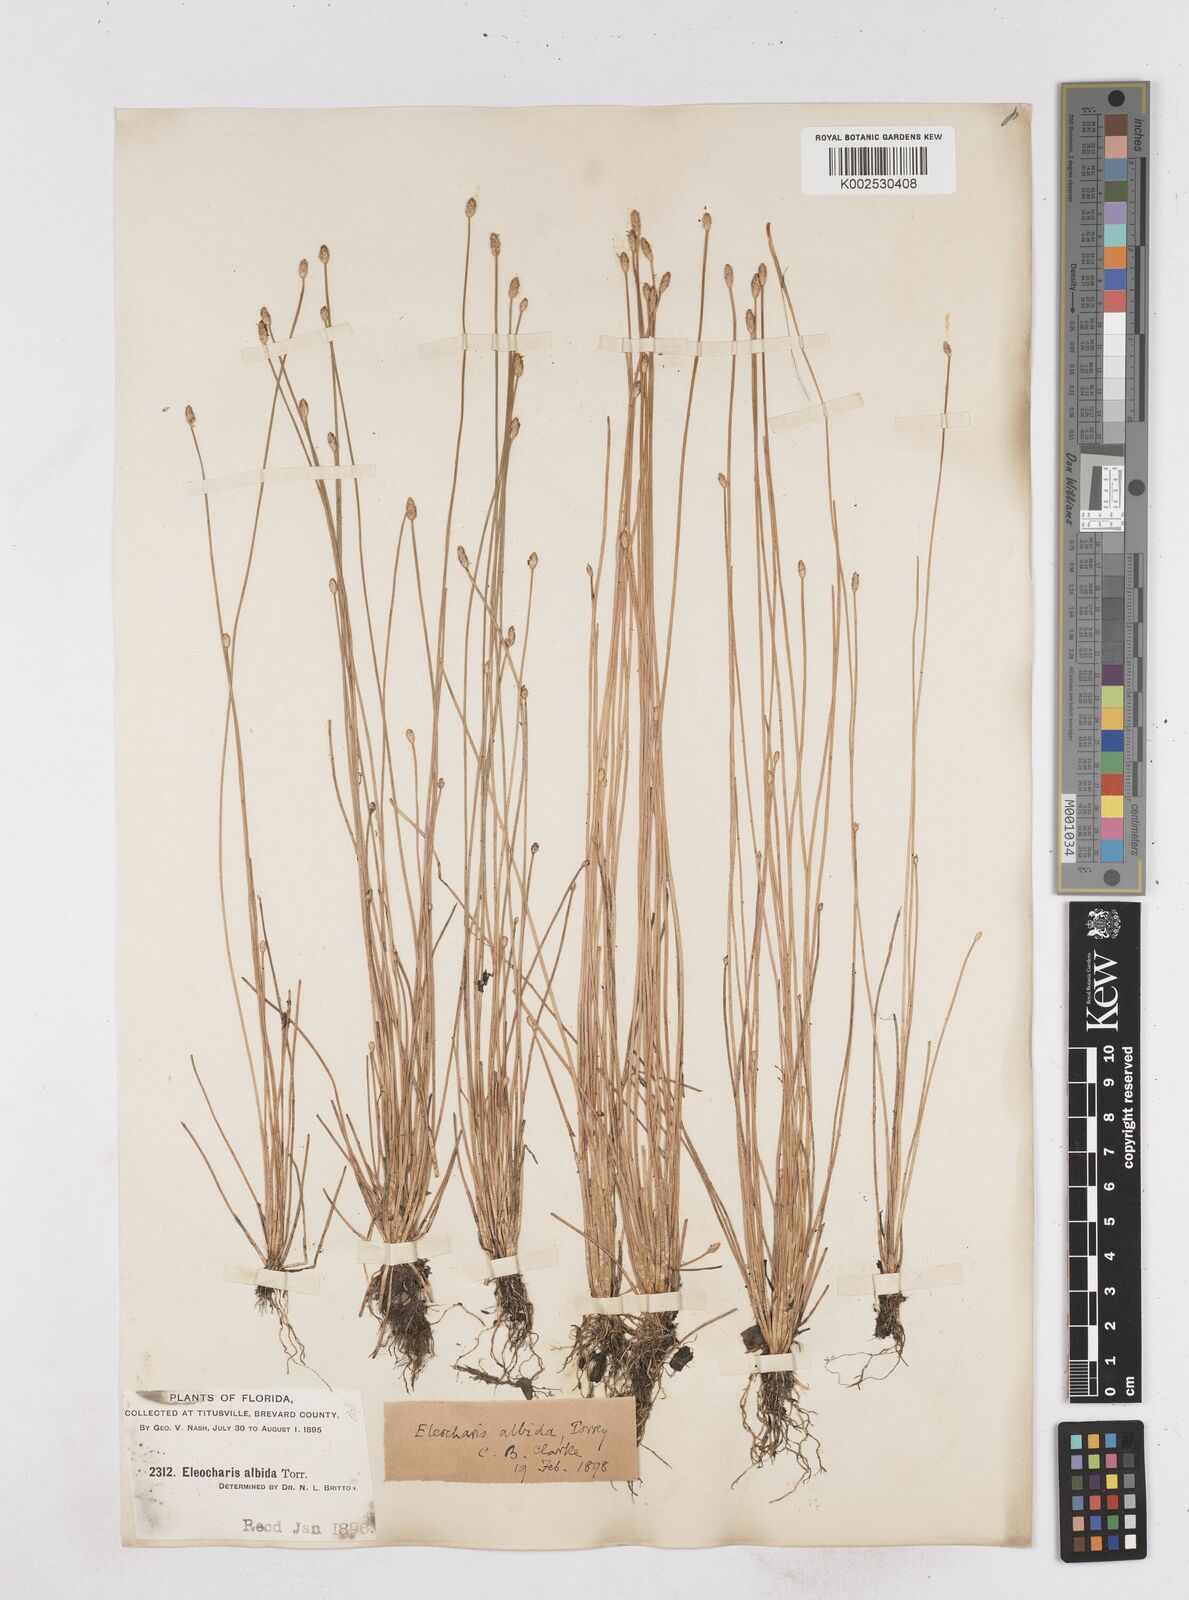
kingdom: Plantae
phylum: Tracheophyta
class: Liliopsida
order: Poales
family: Cyperaceae
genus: Eleocharis
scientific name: Eleocharis albida
